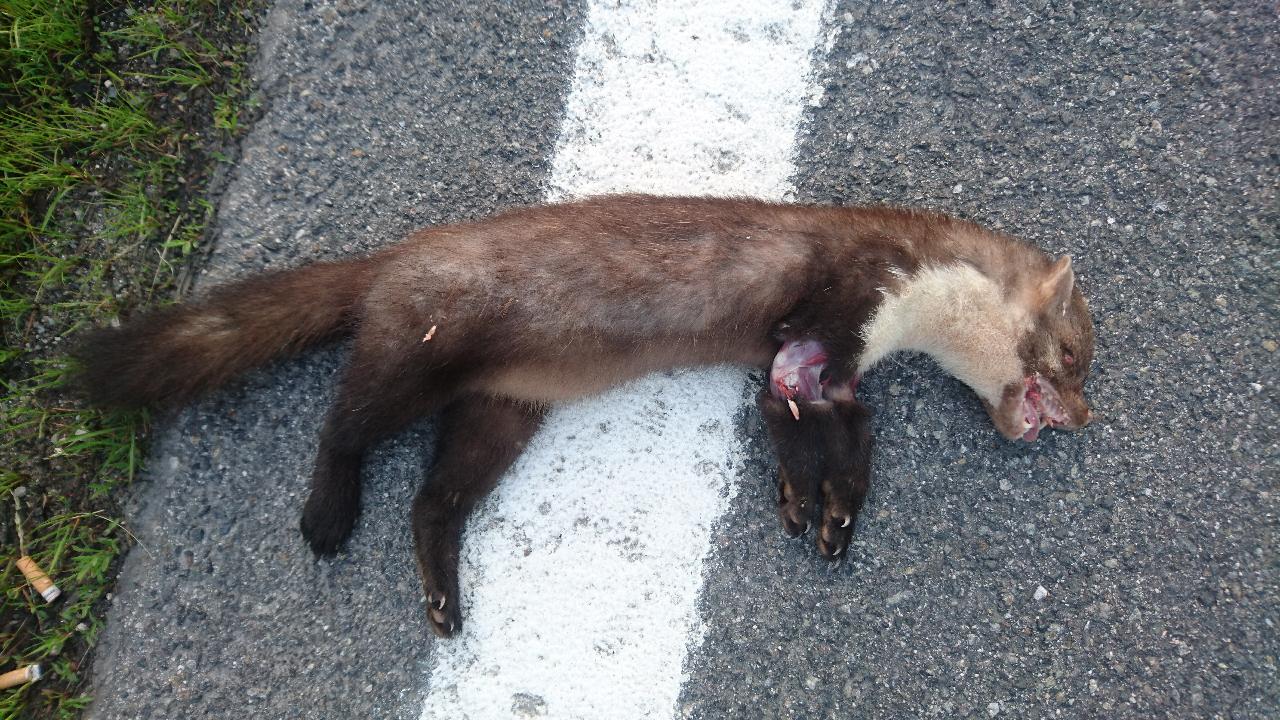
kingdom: Animalia
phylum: Chordata
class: Mammalia
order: Carnivora
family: Mustelidae
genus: Martes
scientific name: Martes foina
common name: Beech marten
